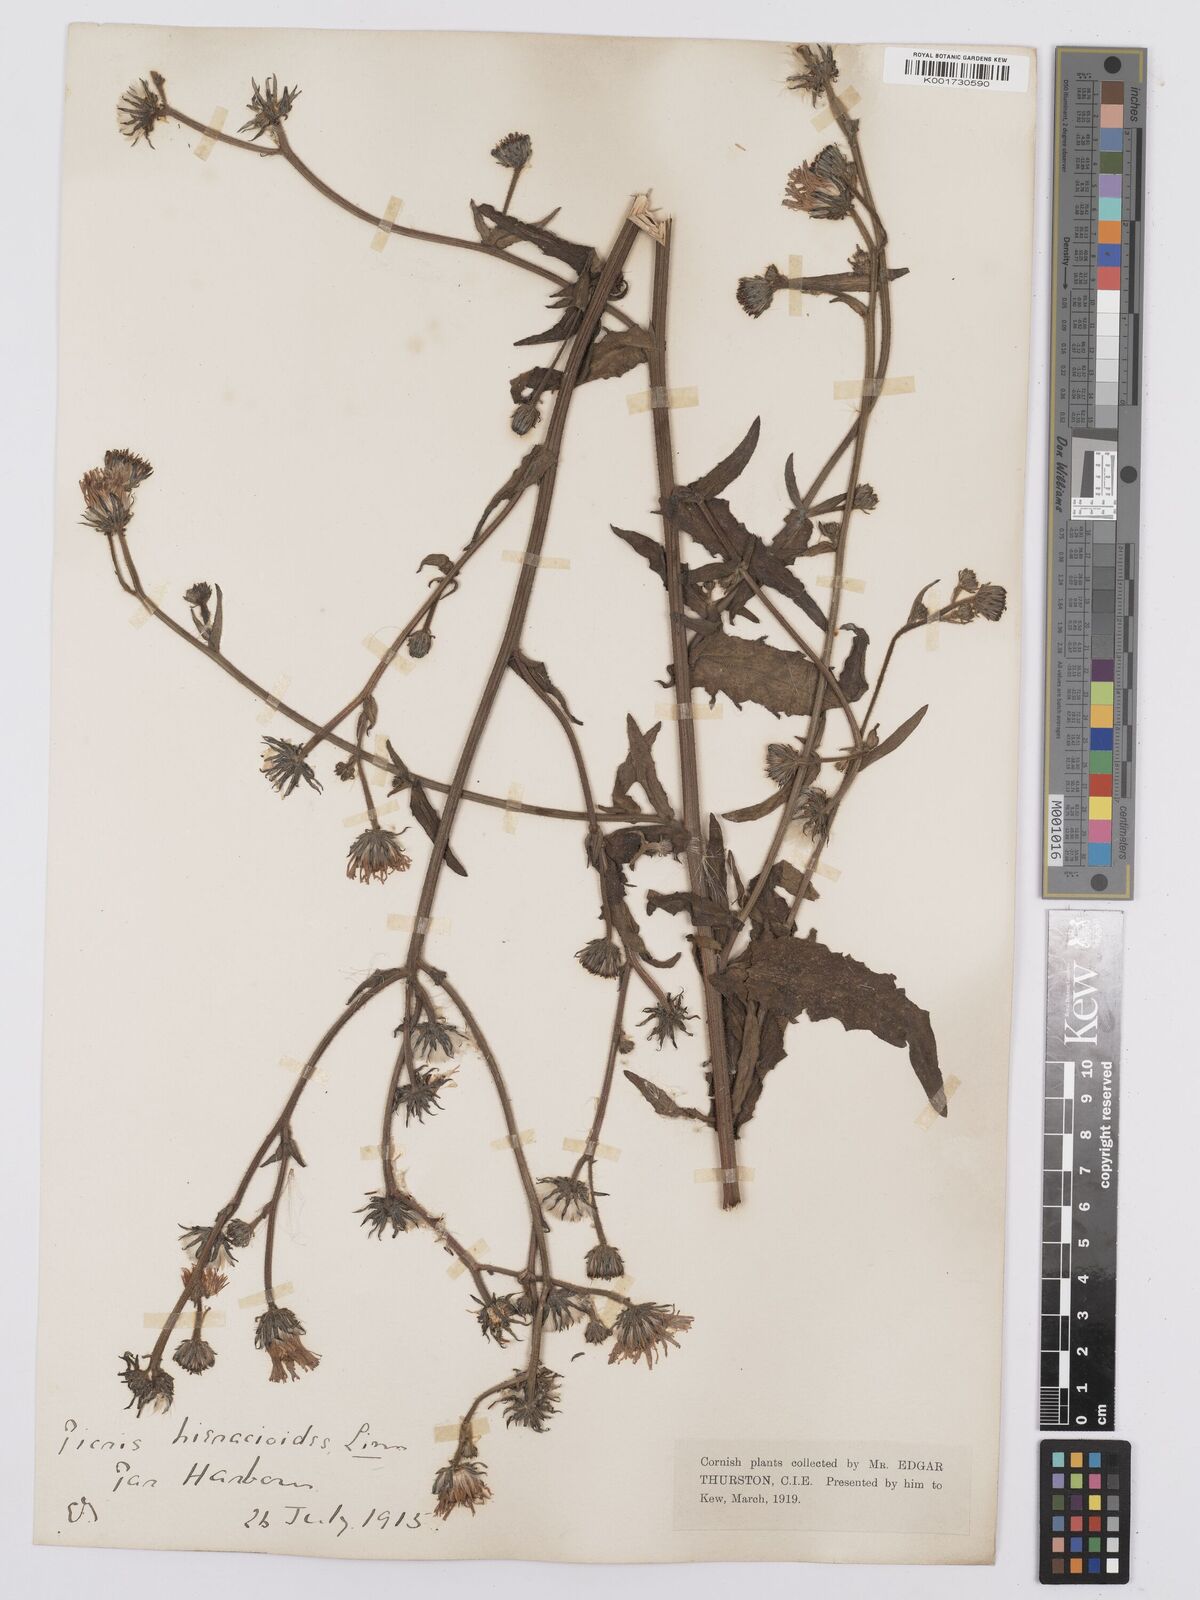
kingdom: Plantae
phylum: Tracheophyta
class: Magnoliopsida
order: Asterales
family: Asteraceae
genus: Picris
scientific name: Picris hieracioides
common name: Hawkweed oxtongue
